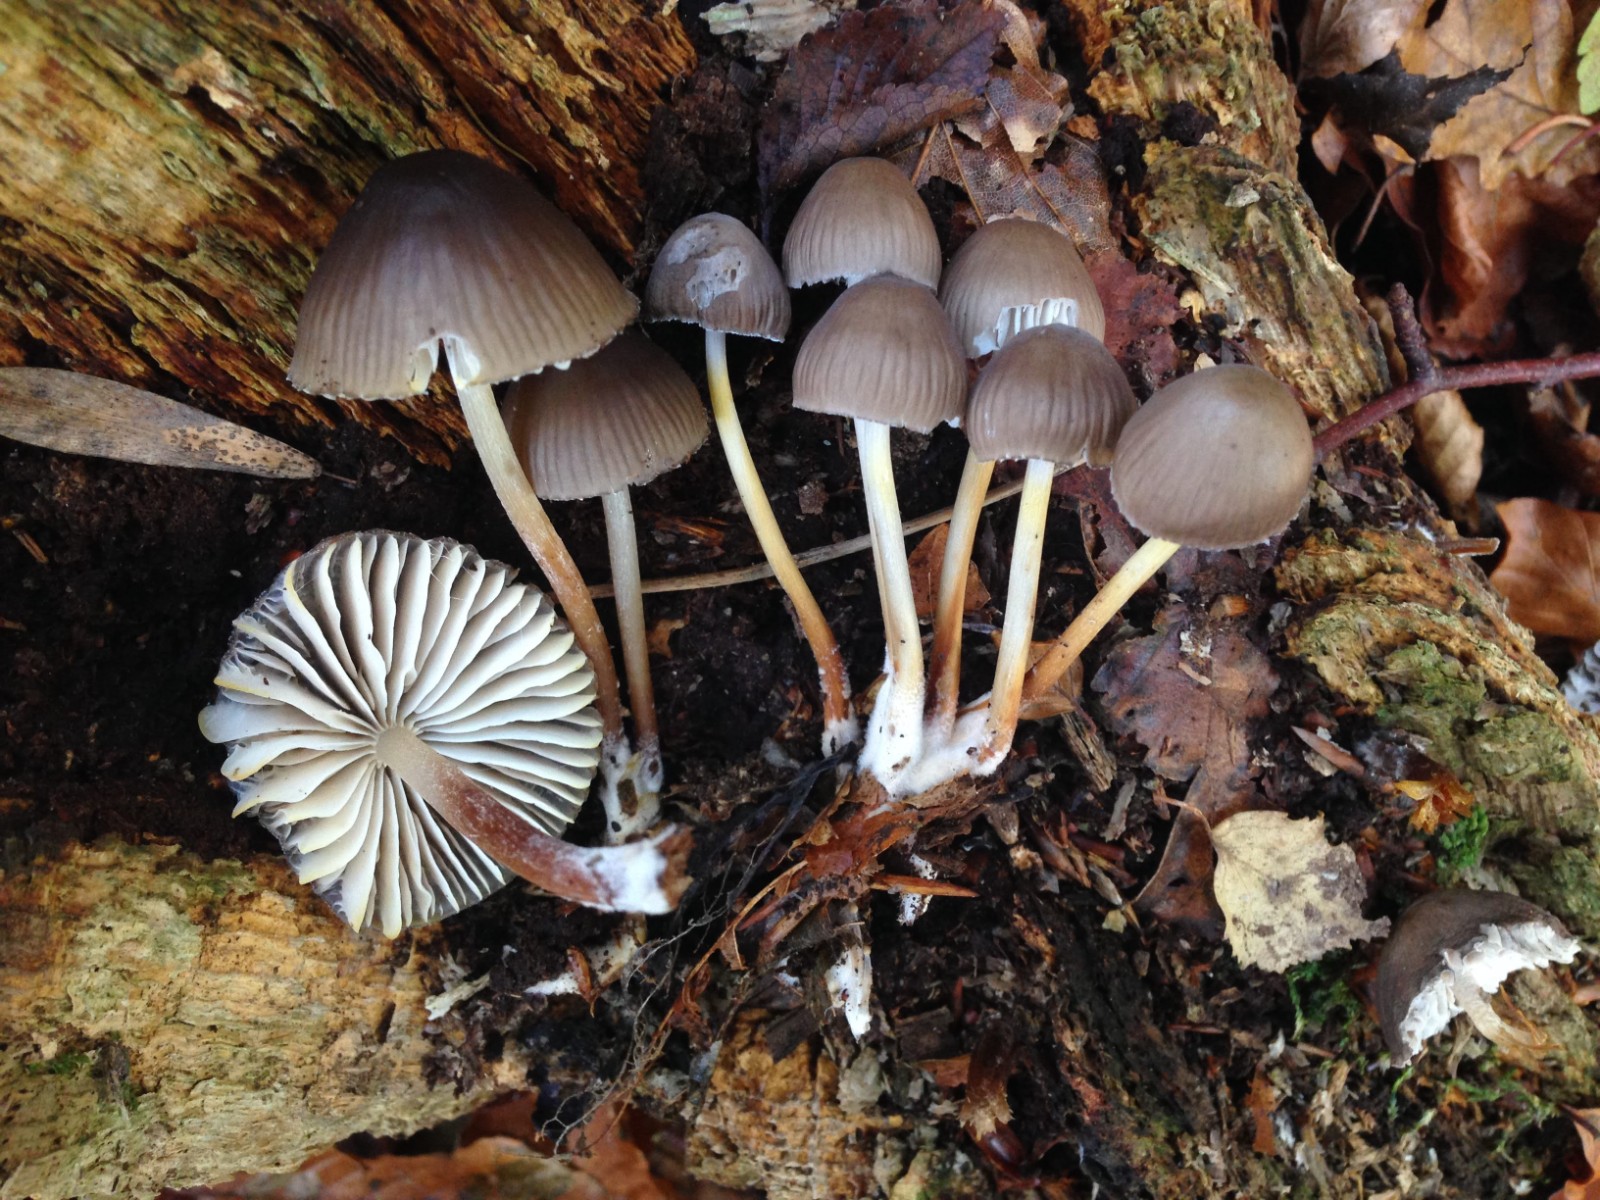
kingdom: Fungi
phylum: Basidiomycota
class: Agaricomycetes
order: Agaricales
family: Mycenaceae
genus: Mycena
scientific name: Mycena inclinata
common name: nikkende huesvamp
